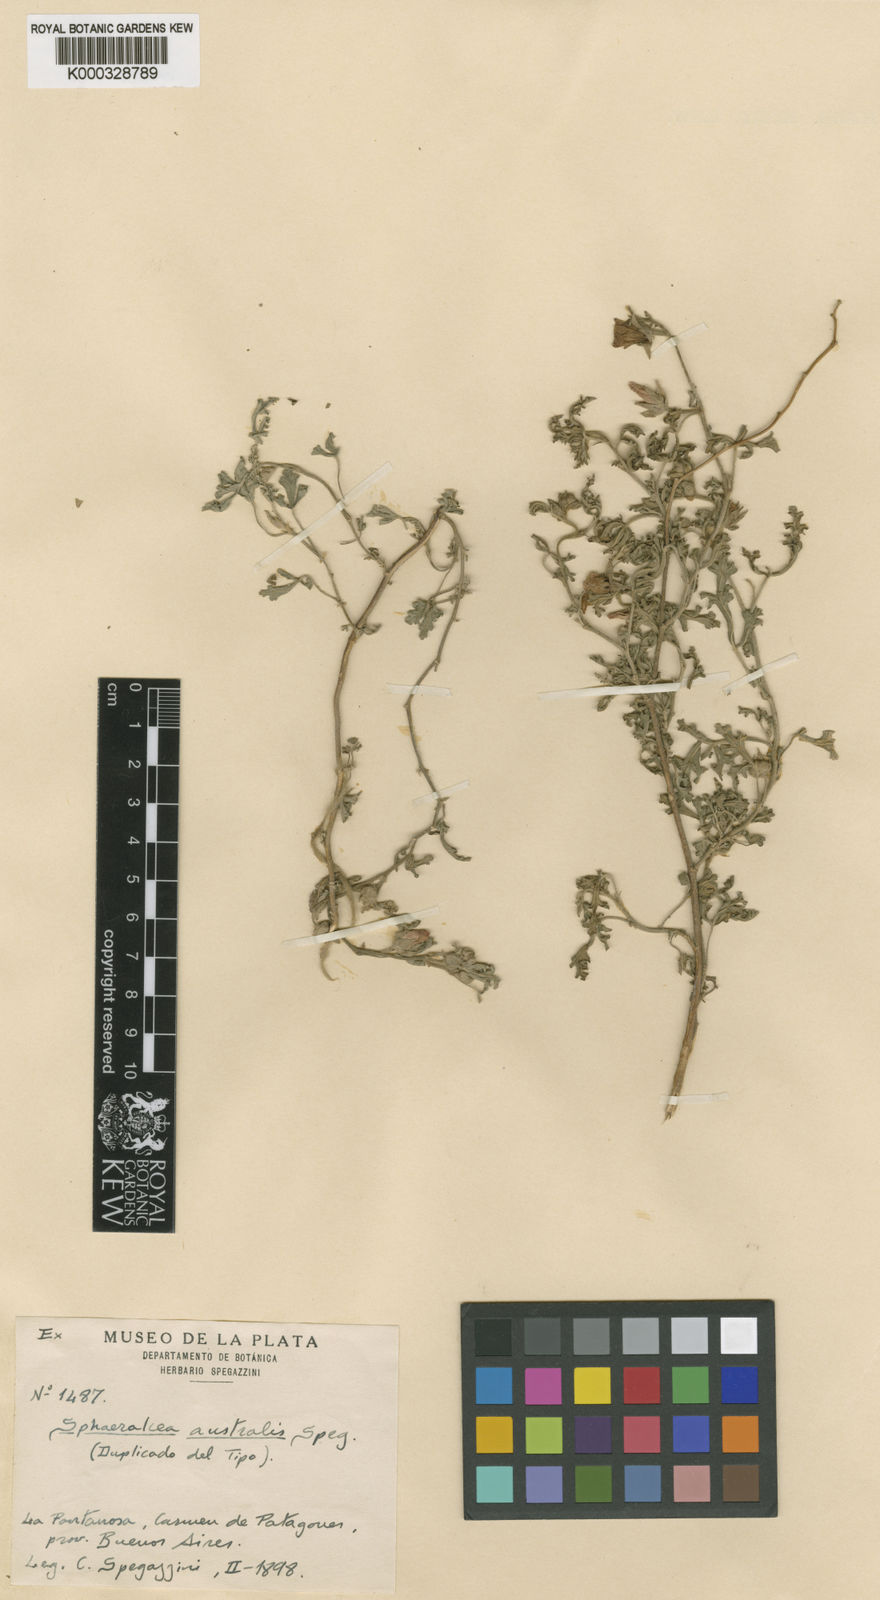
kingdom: Plantae
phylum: Tracheophyta
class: Magnoliopsida
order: Malvales
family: Malvaceae
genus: Sphaeralcea
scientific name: Sphaeralcea crispa
